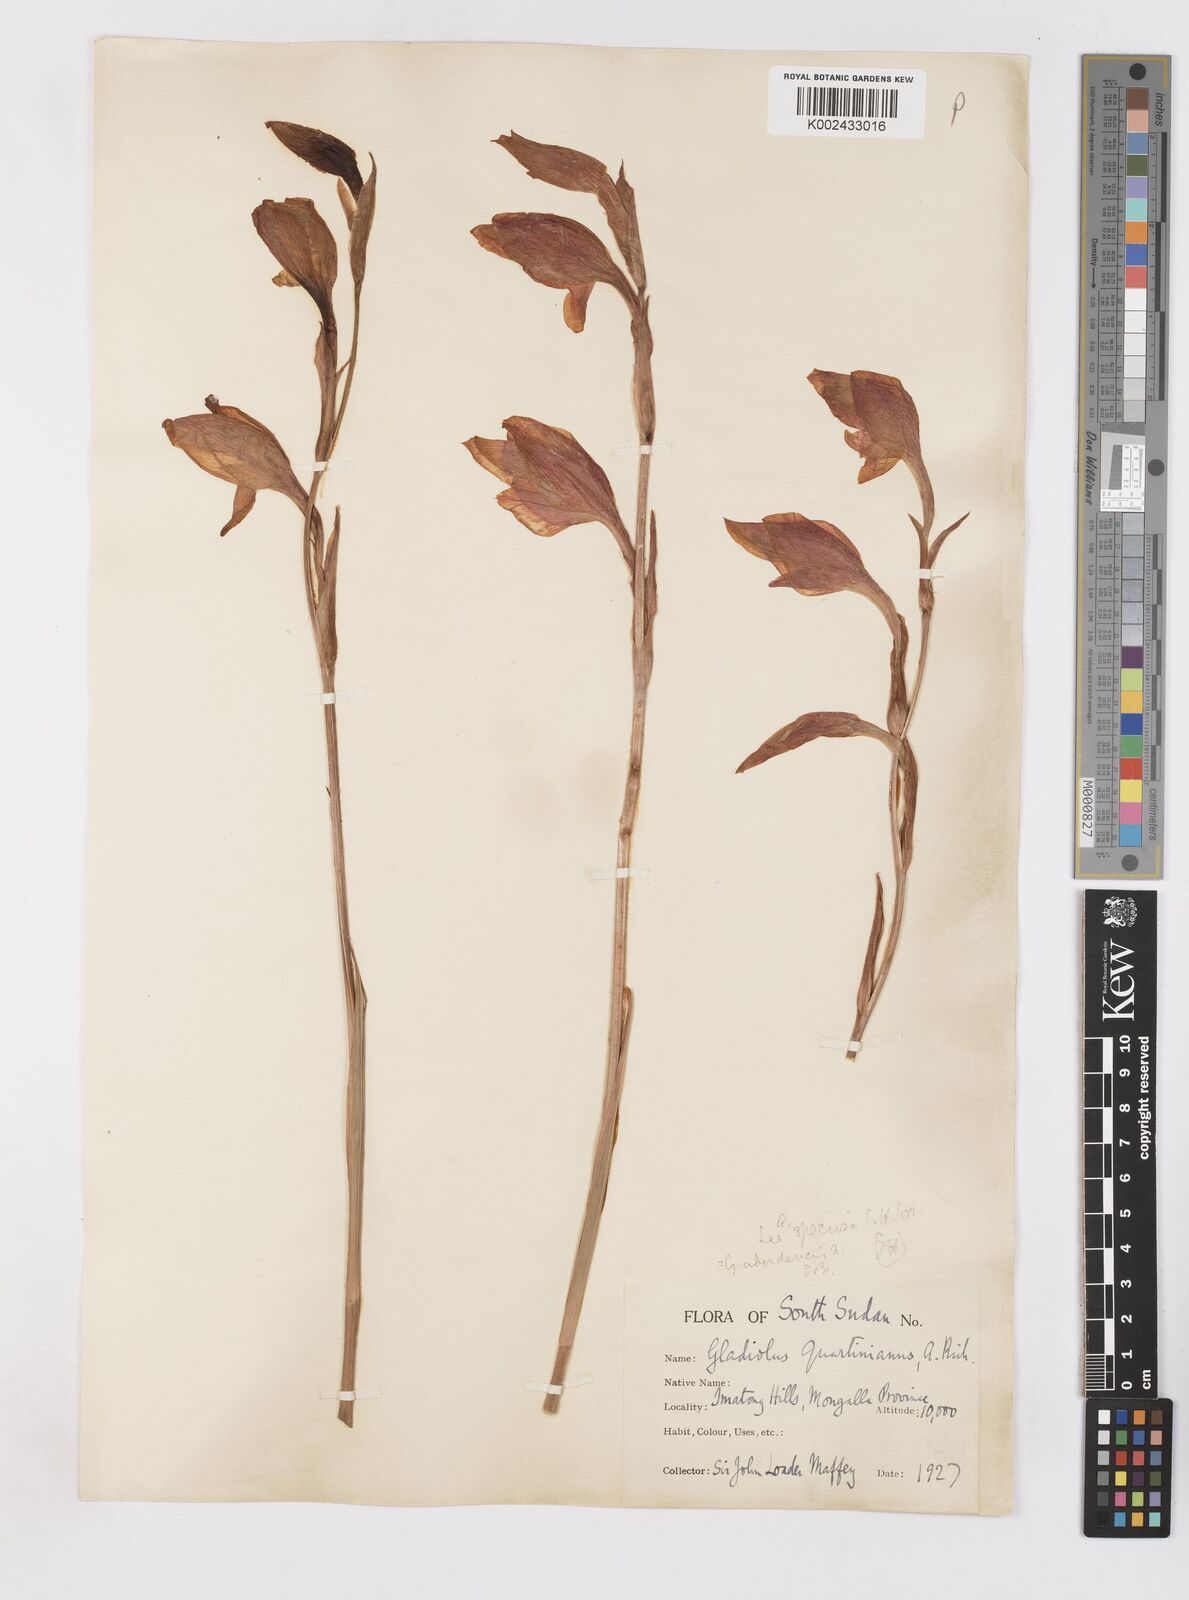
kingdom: Plantae
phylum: Tracheophyta
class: Liliopsida
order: Asparagales
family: Iridaceae
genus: Gladiolus
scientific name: Gladiolus dalenii
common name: Cornflag
